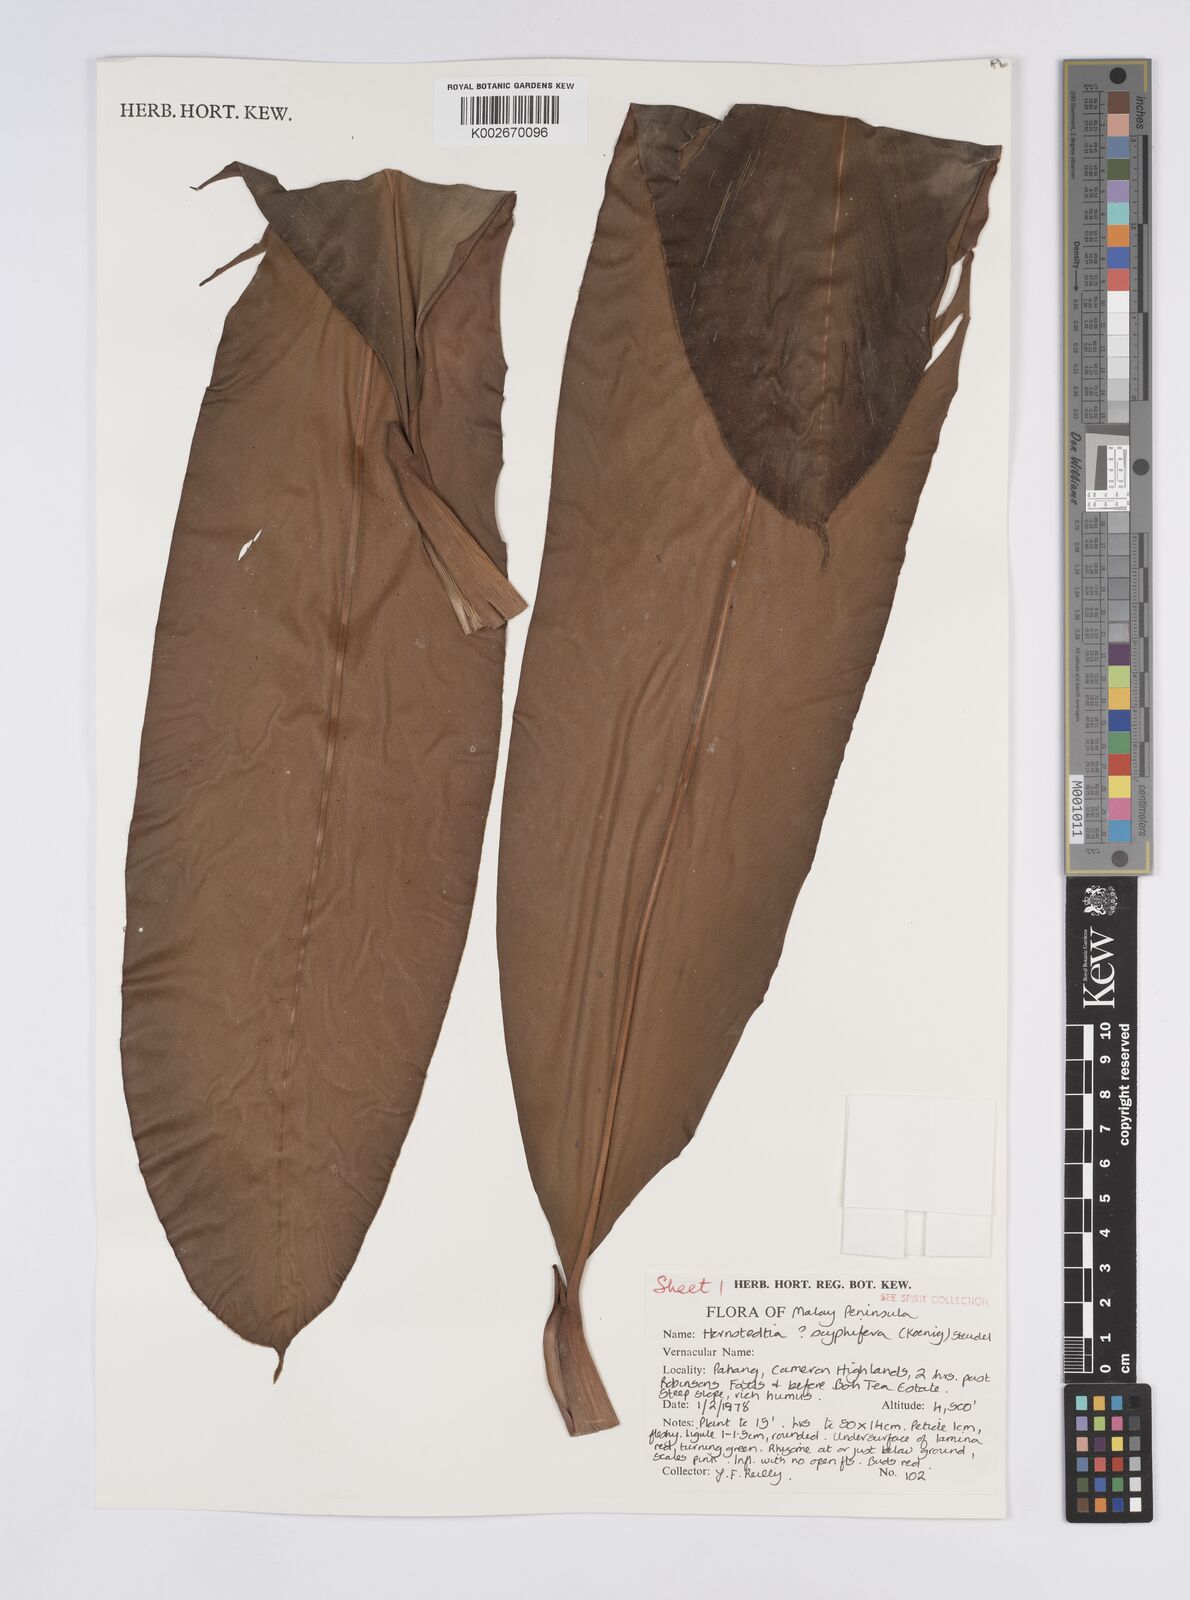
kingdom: Plantae
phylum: Tracheophyta
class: Liliopsida
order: Zingiberales
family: Zingiberaceae
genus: Hornstedtia
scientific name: Hornstedtia scyphifera
